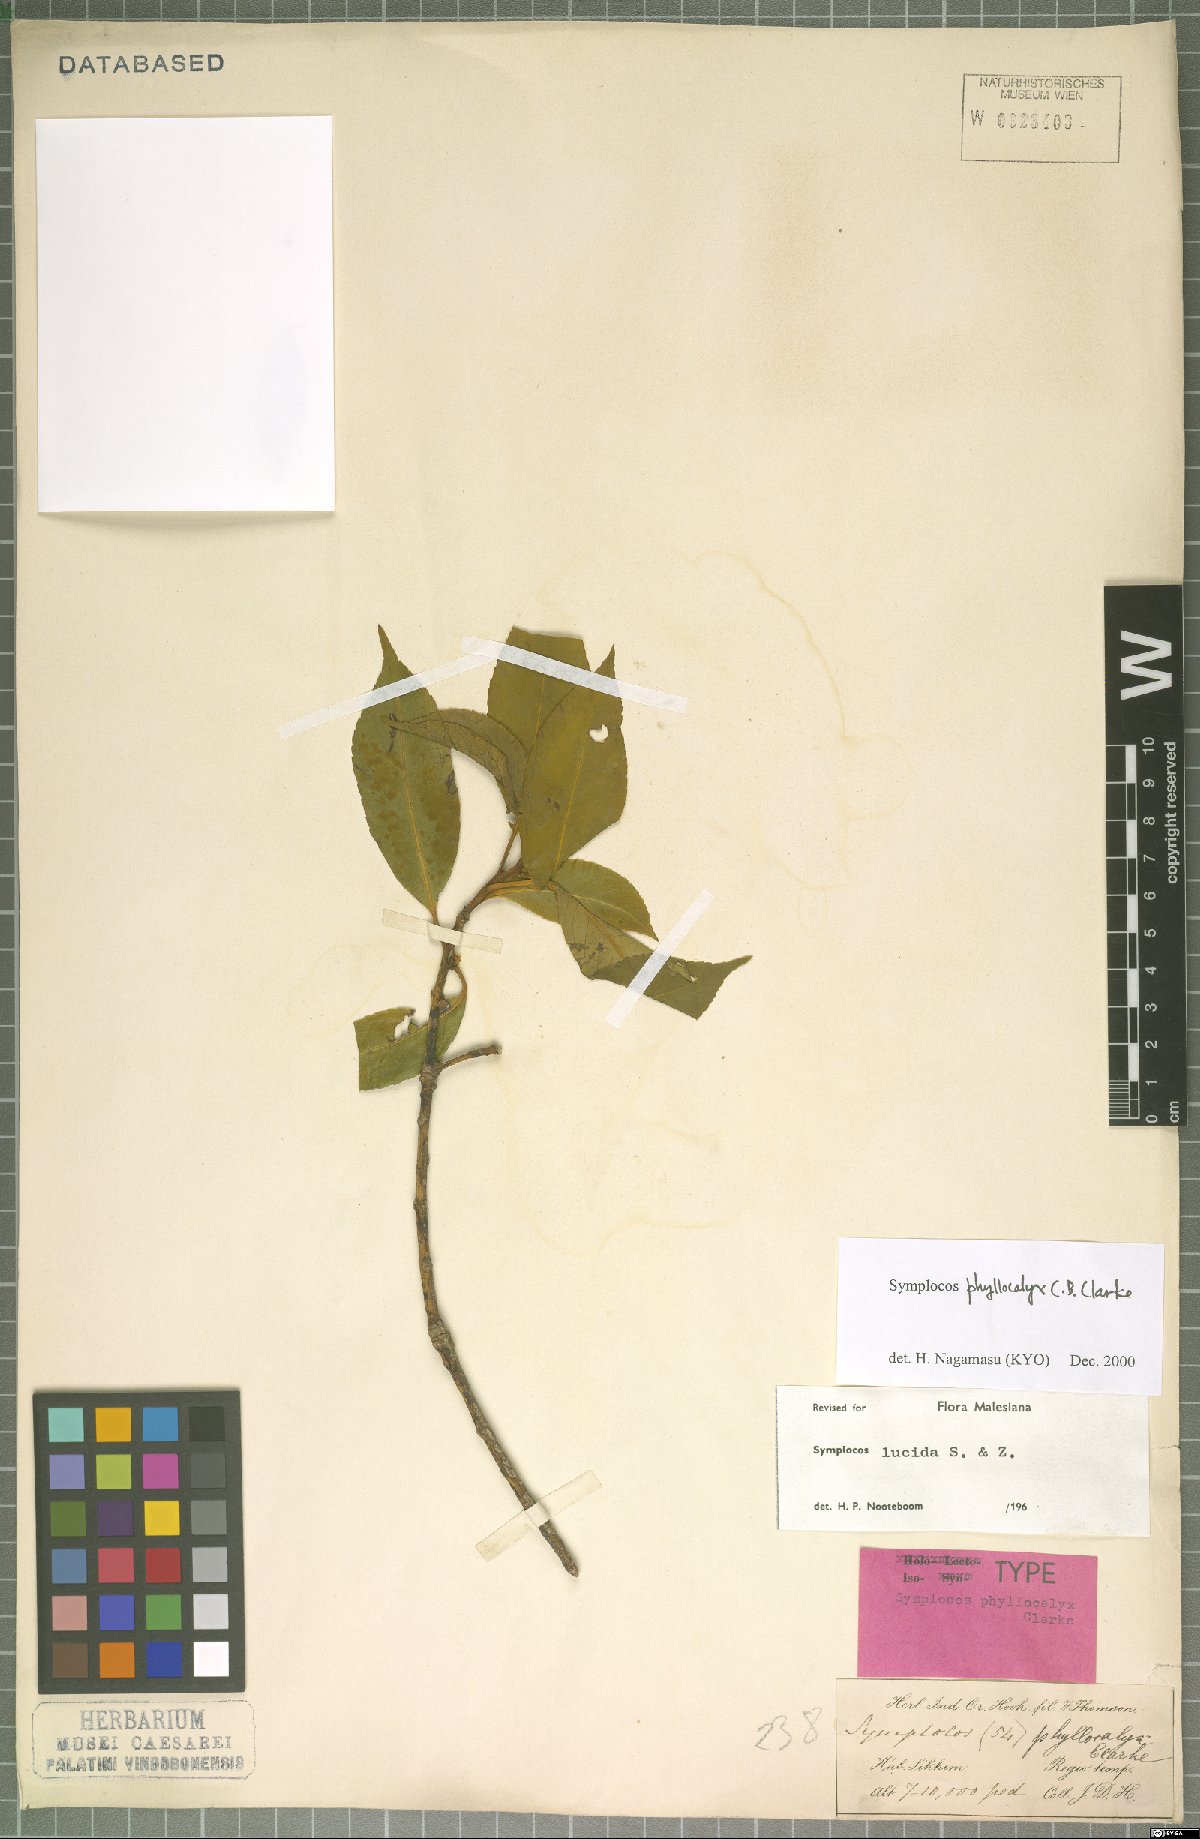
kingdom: Plantae
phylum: Tracheophyta
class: Magnoliopsida
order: Ericales
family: Symplocaceae
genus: Symplocos
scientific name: Symplocos theifolia
